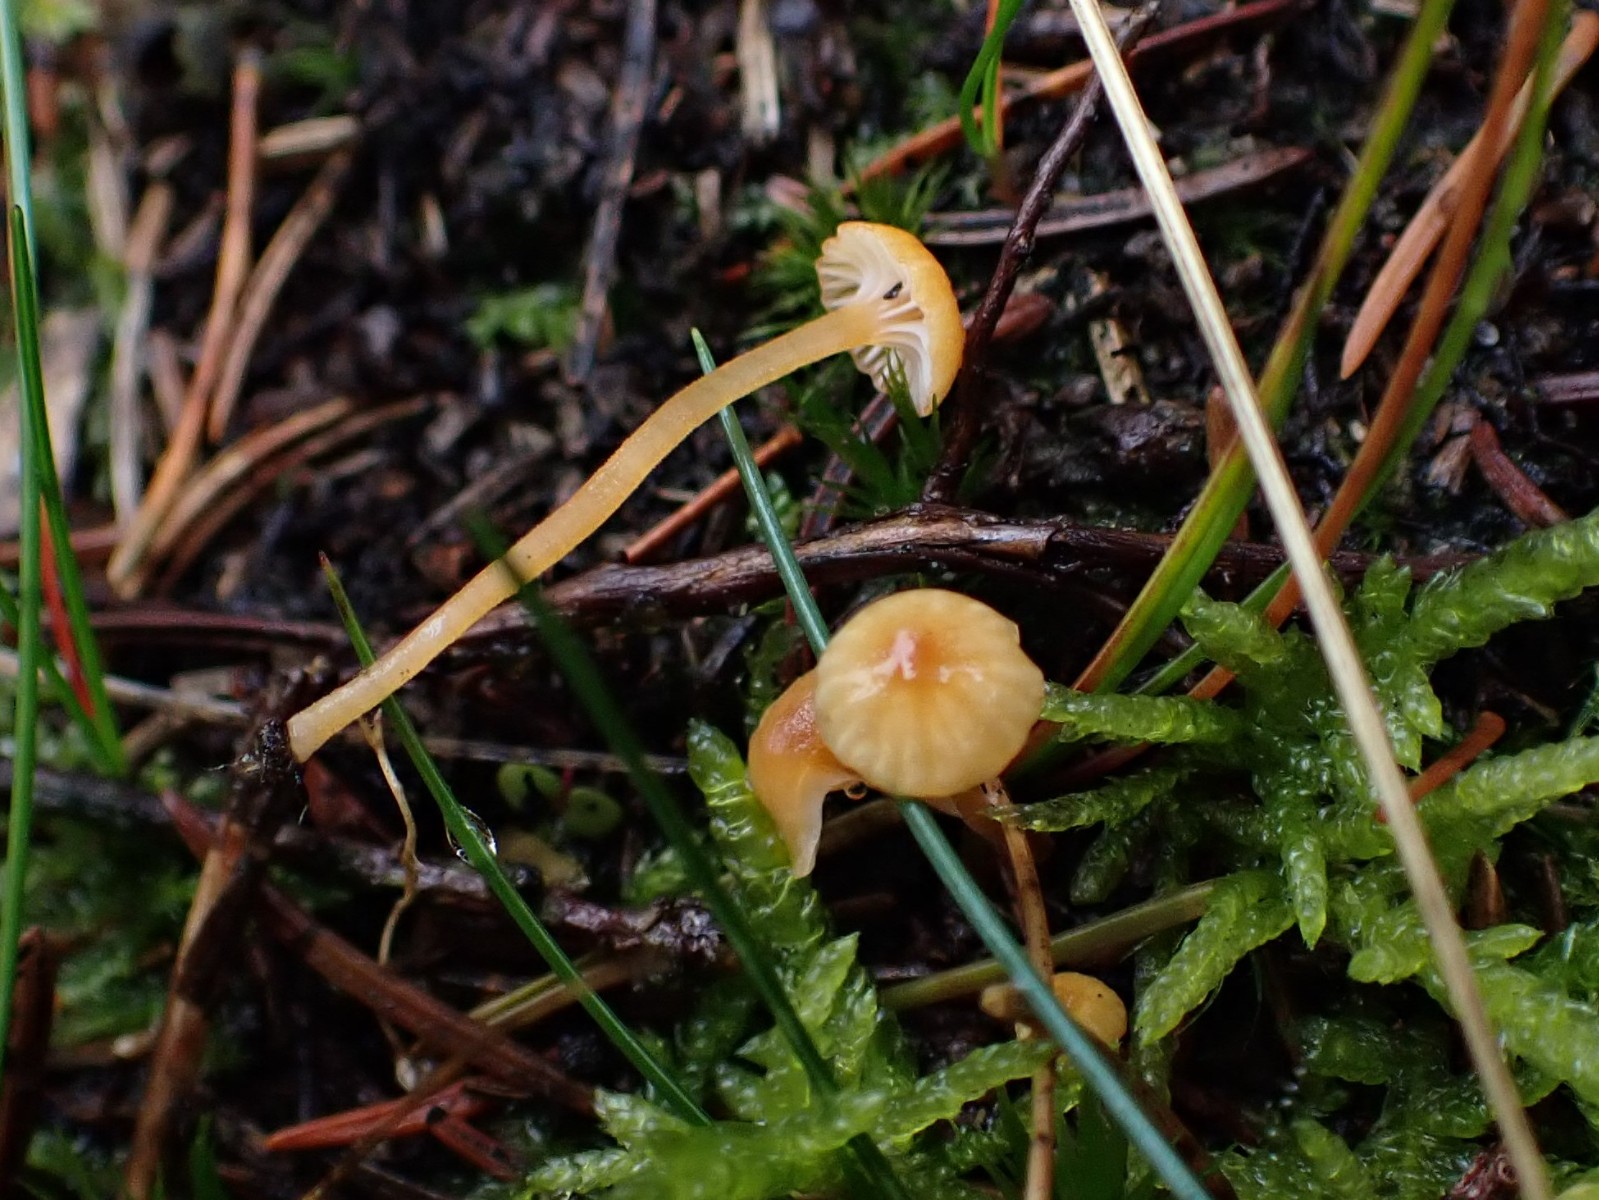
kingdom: Fungi
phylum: Basidiomycota
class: Agaricomycetes
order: Hymenochaetales
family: Rickenellaceae
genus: Rickenella
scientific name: Rickenella fibula
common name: orange mosnavlehat
